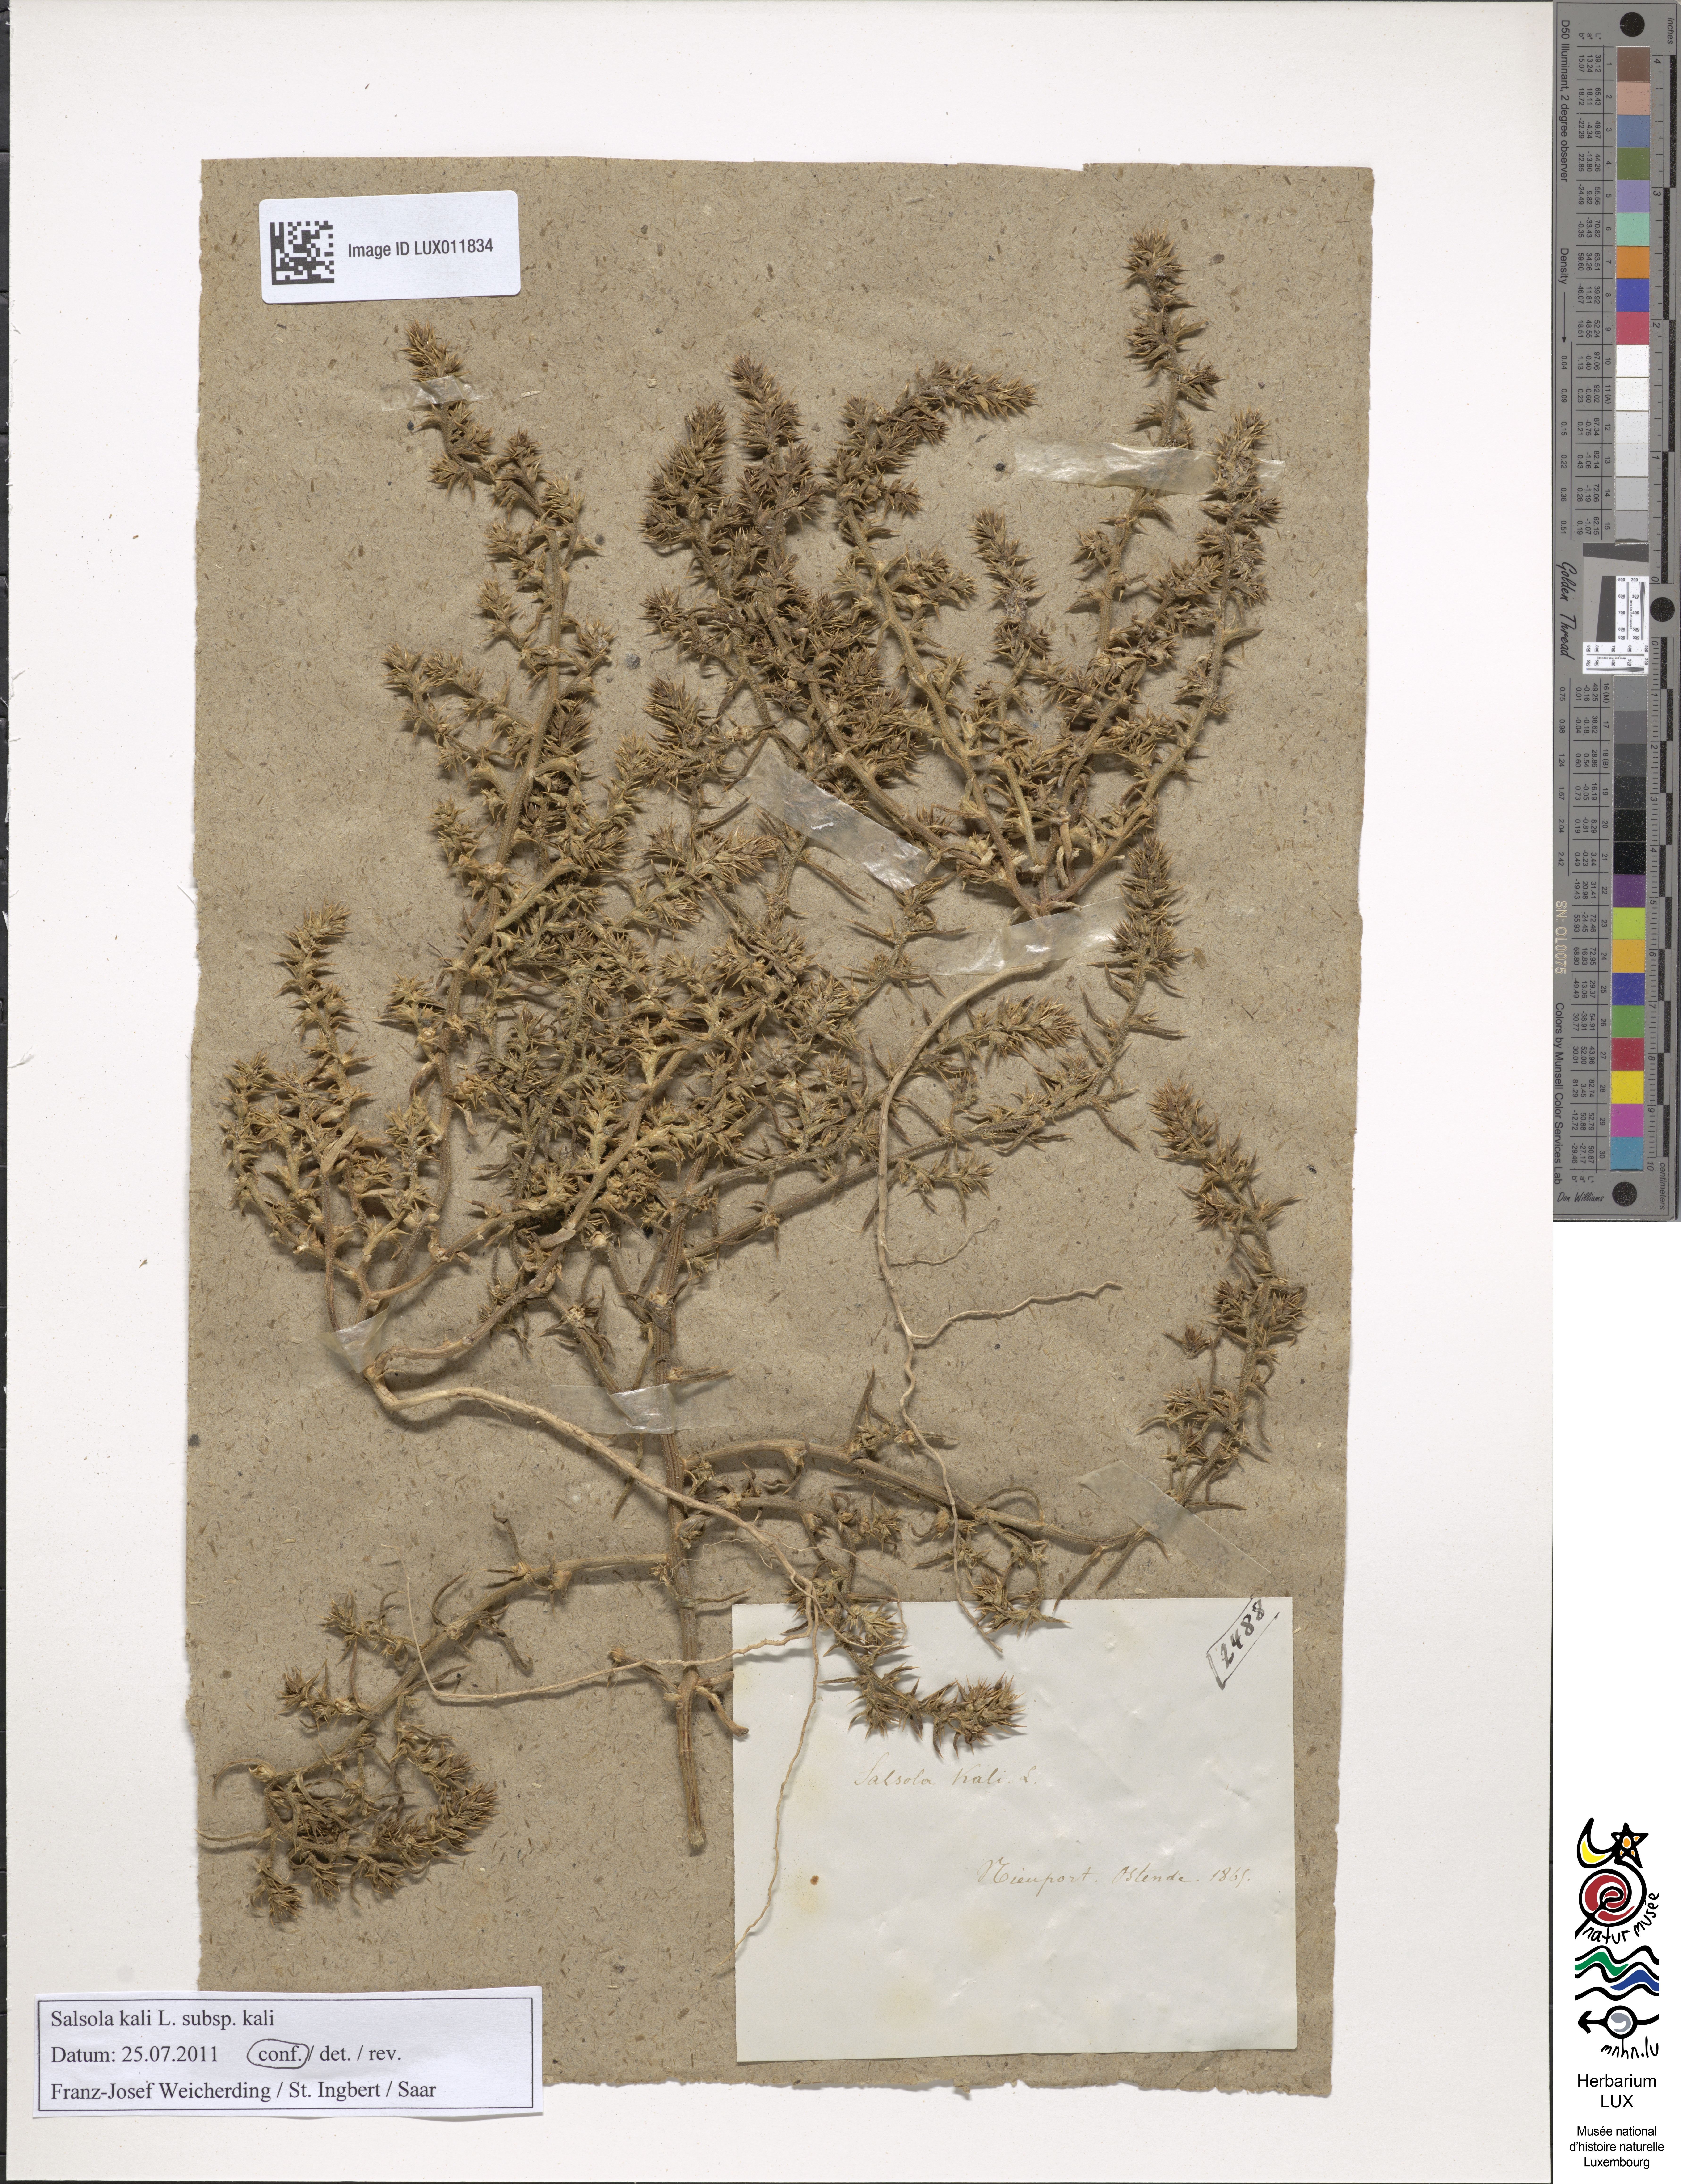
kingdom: Plantae
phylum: Tracheophyta
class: Magnoliopsida
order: Caryophyllales
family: Amaranthaceae
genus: Salsola
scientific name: Salsola kali
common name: Saltwort
